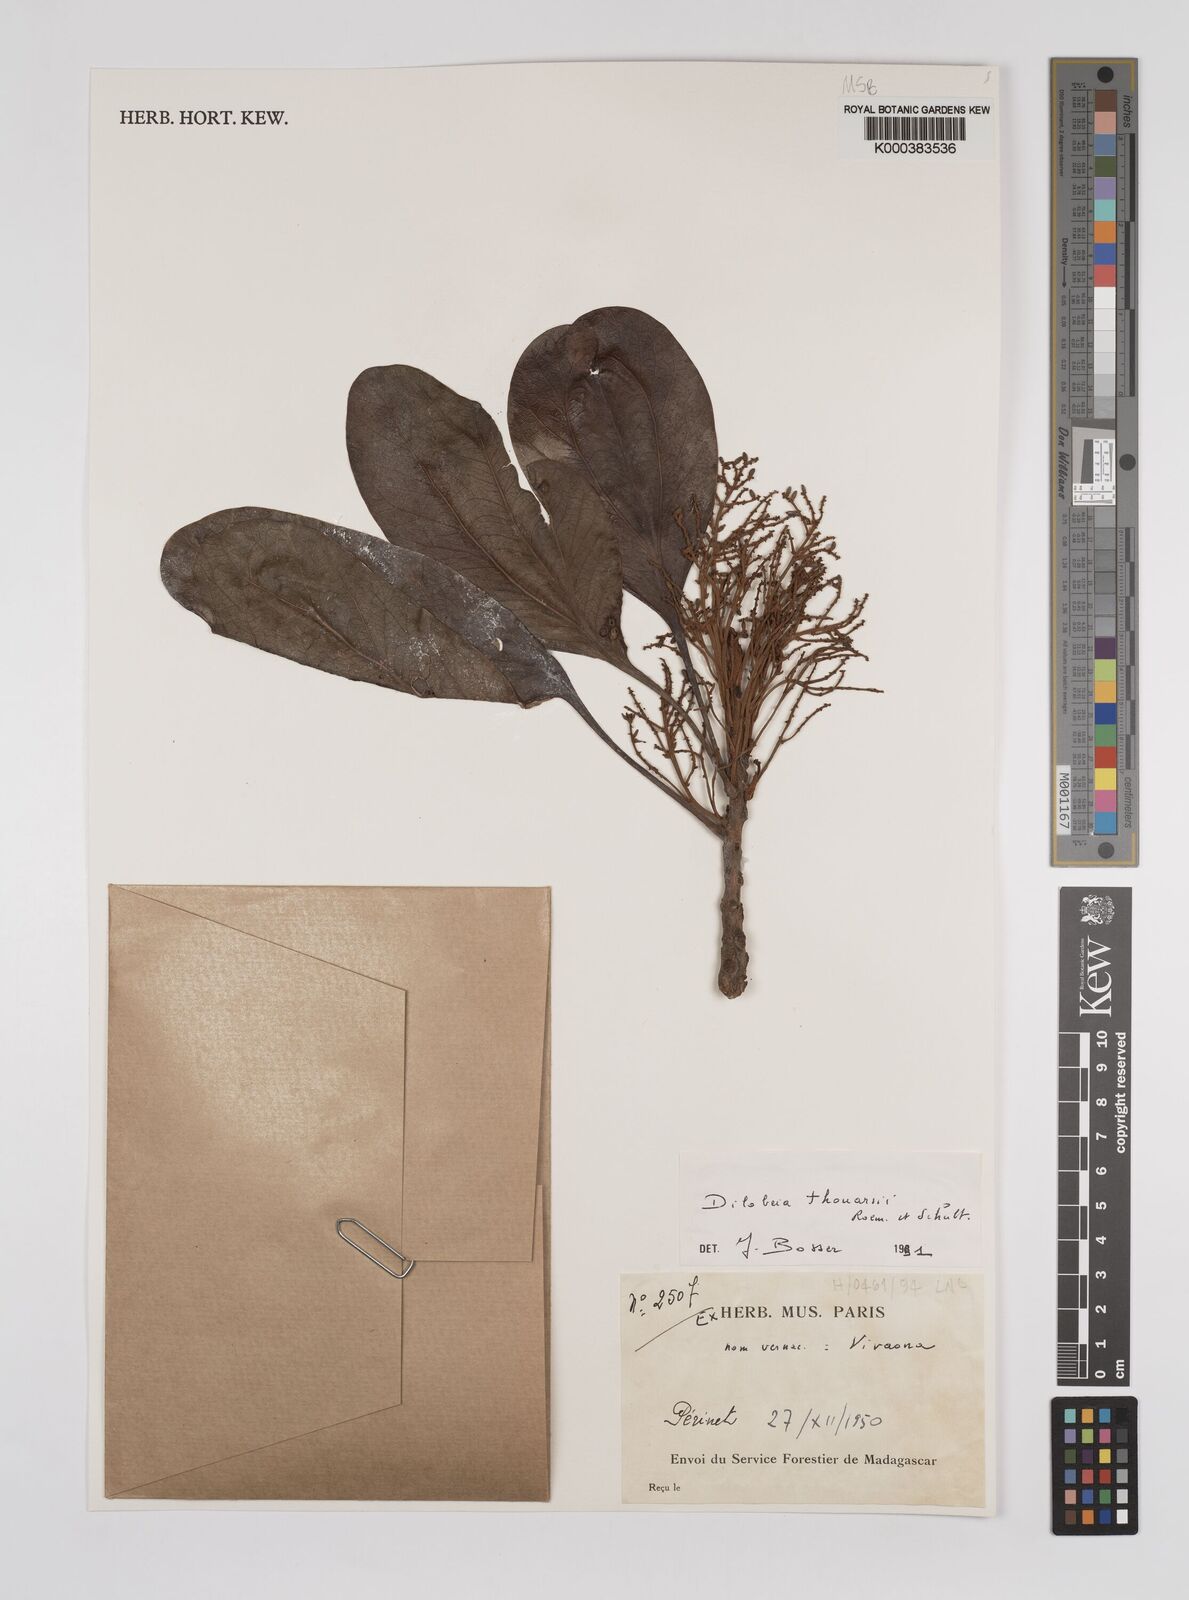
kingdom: Plantae
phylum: Tracheophyta
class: Magnoliopsida
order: Proteales
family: Proteaceae
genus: Dilobeia
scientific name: Dilobeia thouarsii
